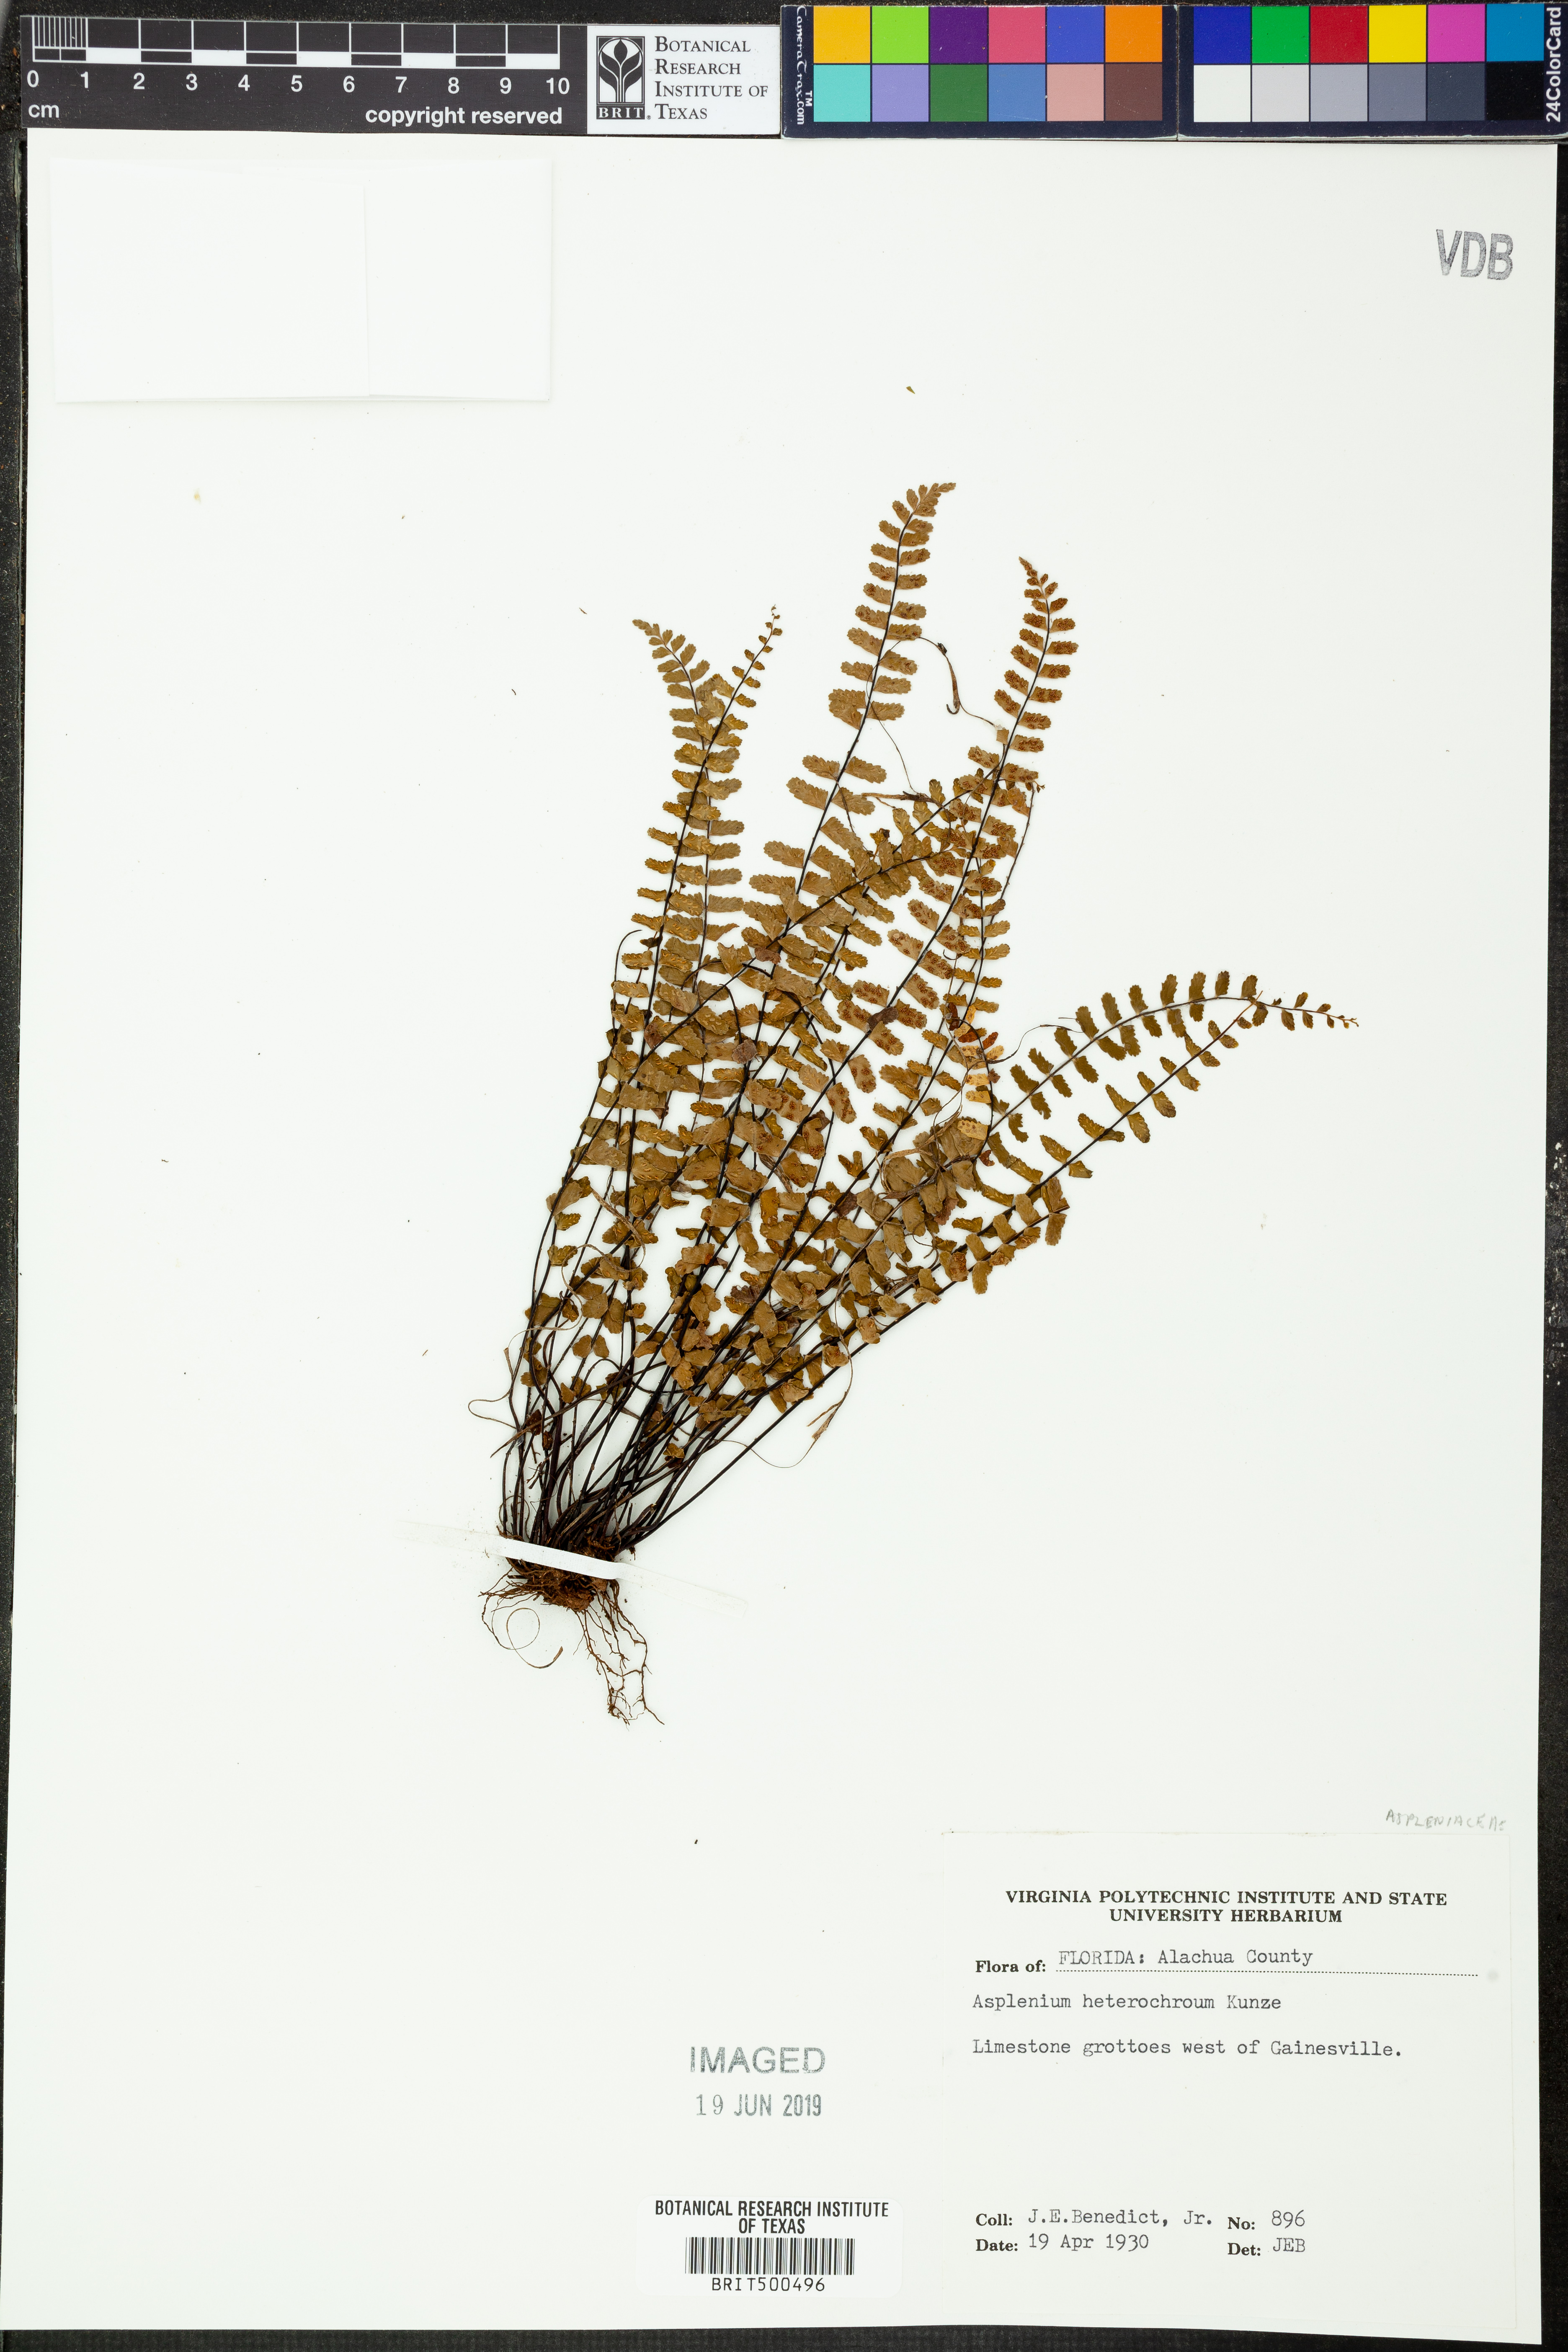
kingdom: Plantae
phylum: Tracheophyta
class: Polypodiopsida
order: Polypodiales
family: Aspleniaceae
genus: Asplenium
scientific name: Asplenium heterochroum
